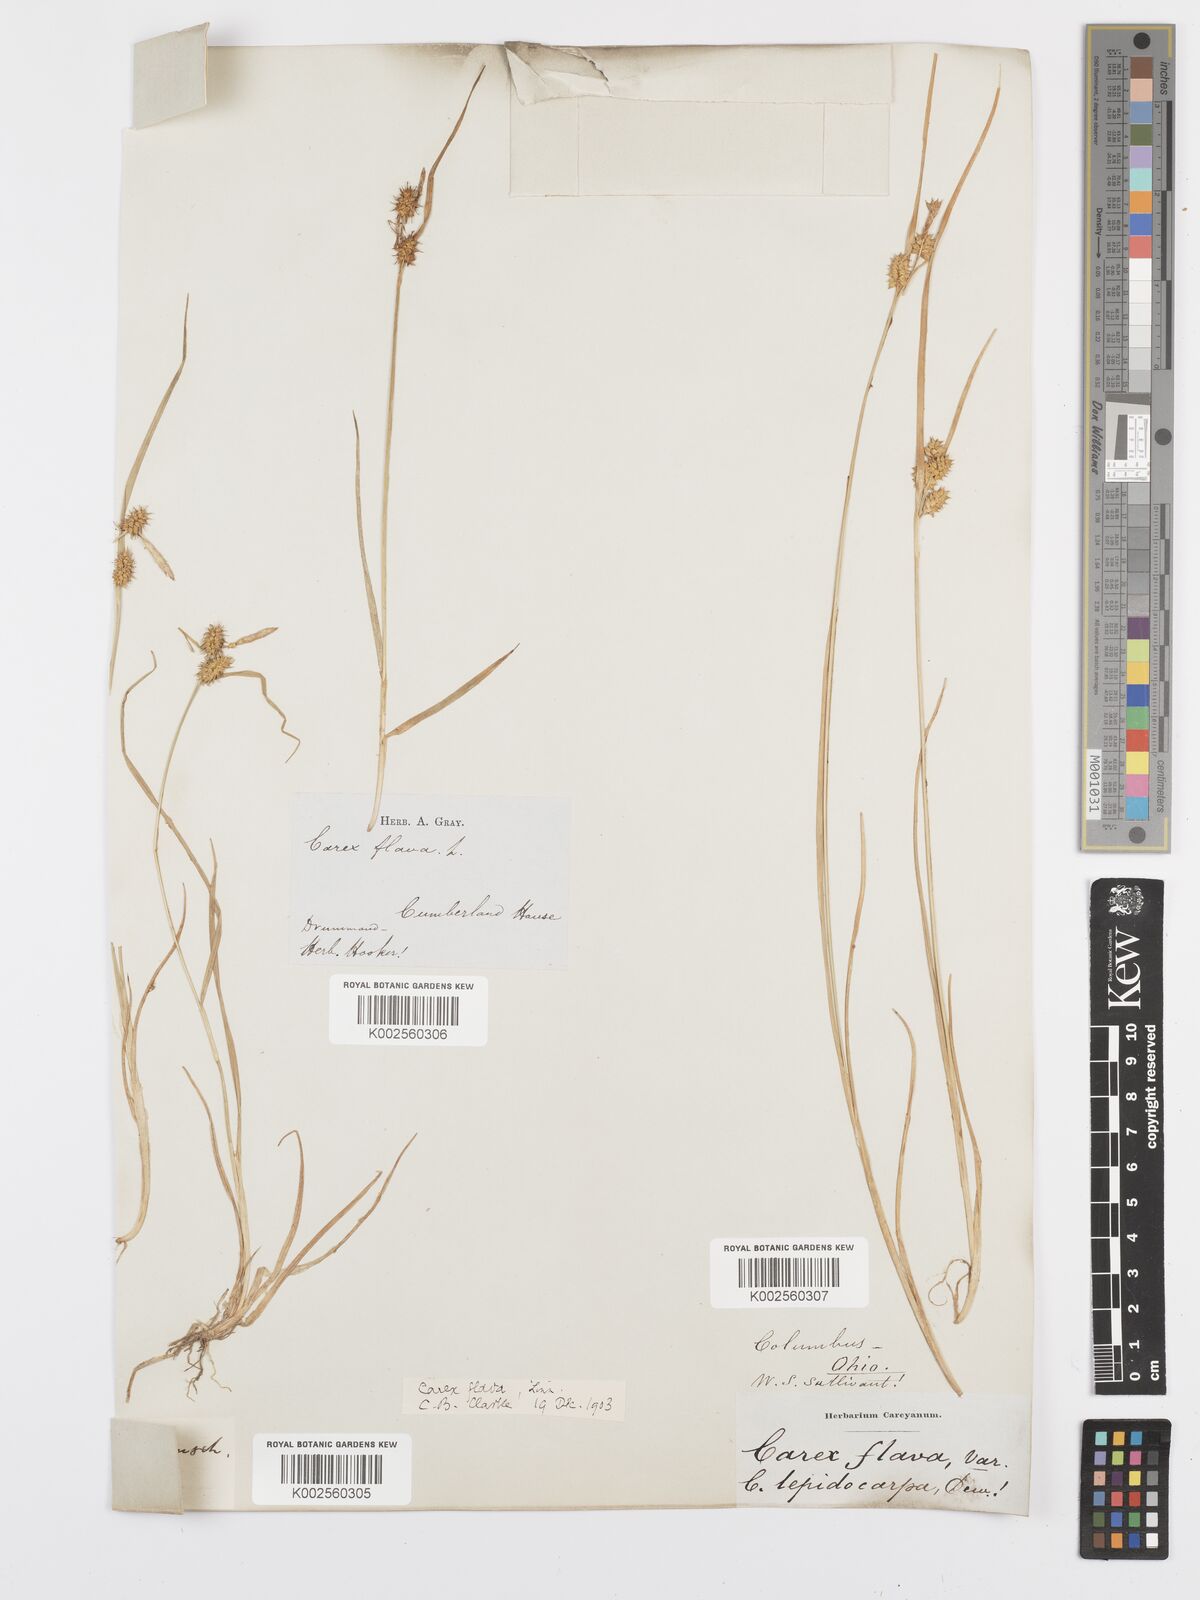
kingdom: Plantae
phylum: Tracheophyta
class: Liliopsida
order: Poales
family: Cyperaceae
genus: Carex
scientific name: Carex flava
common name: Large yellow-sedge
